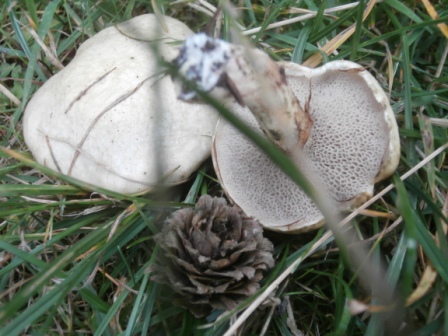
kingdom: Fungi
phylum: Basidiomycota
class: Agaricomycetes
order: Boletales
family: Suillaceae
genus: Suillus
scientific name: Suillus viscidus
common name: olivengrå slimrørhat
